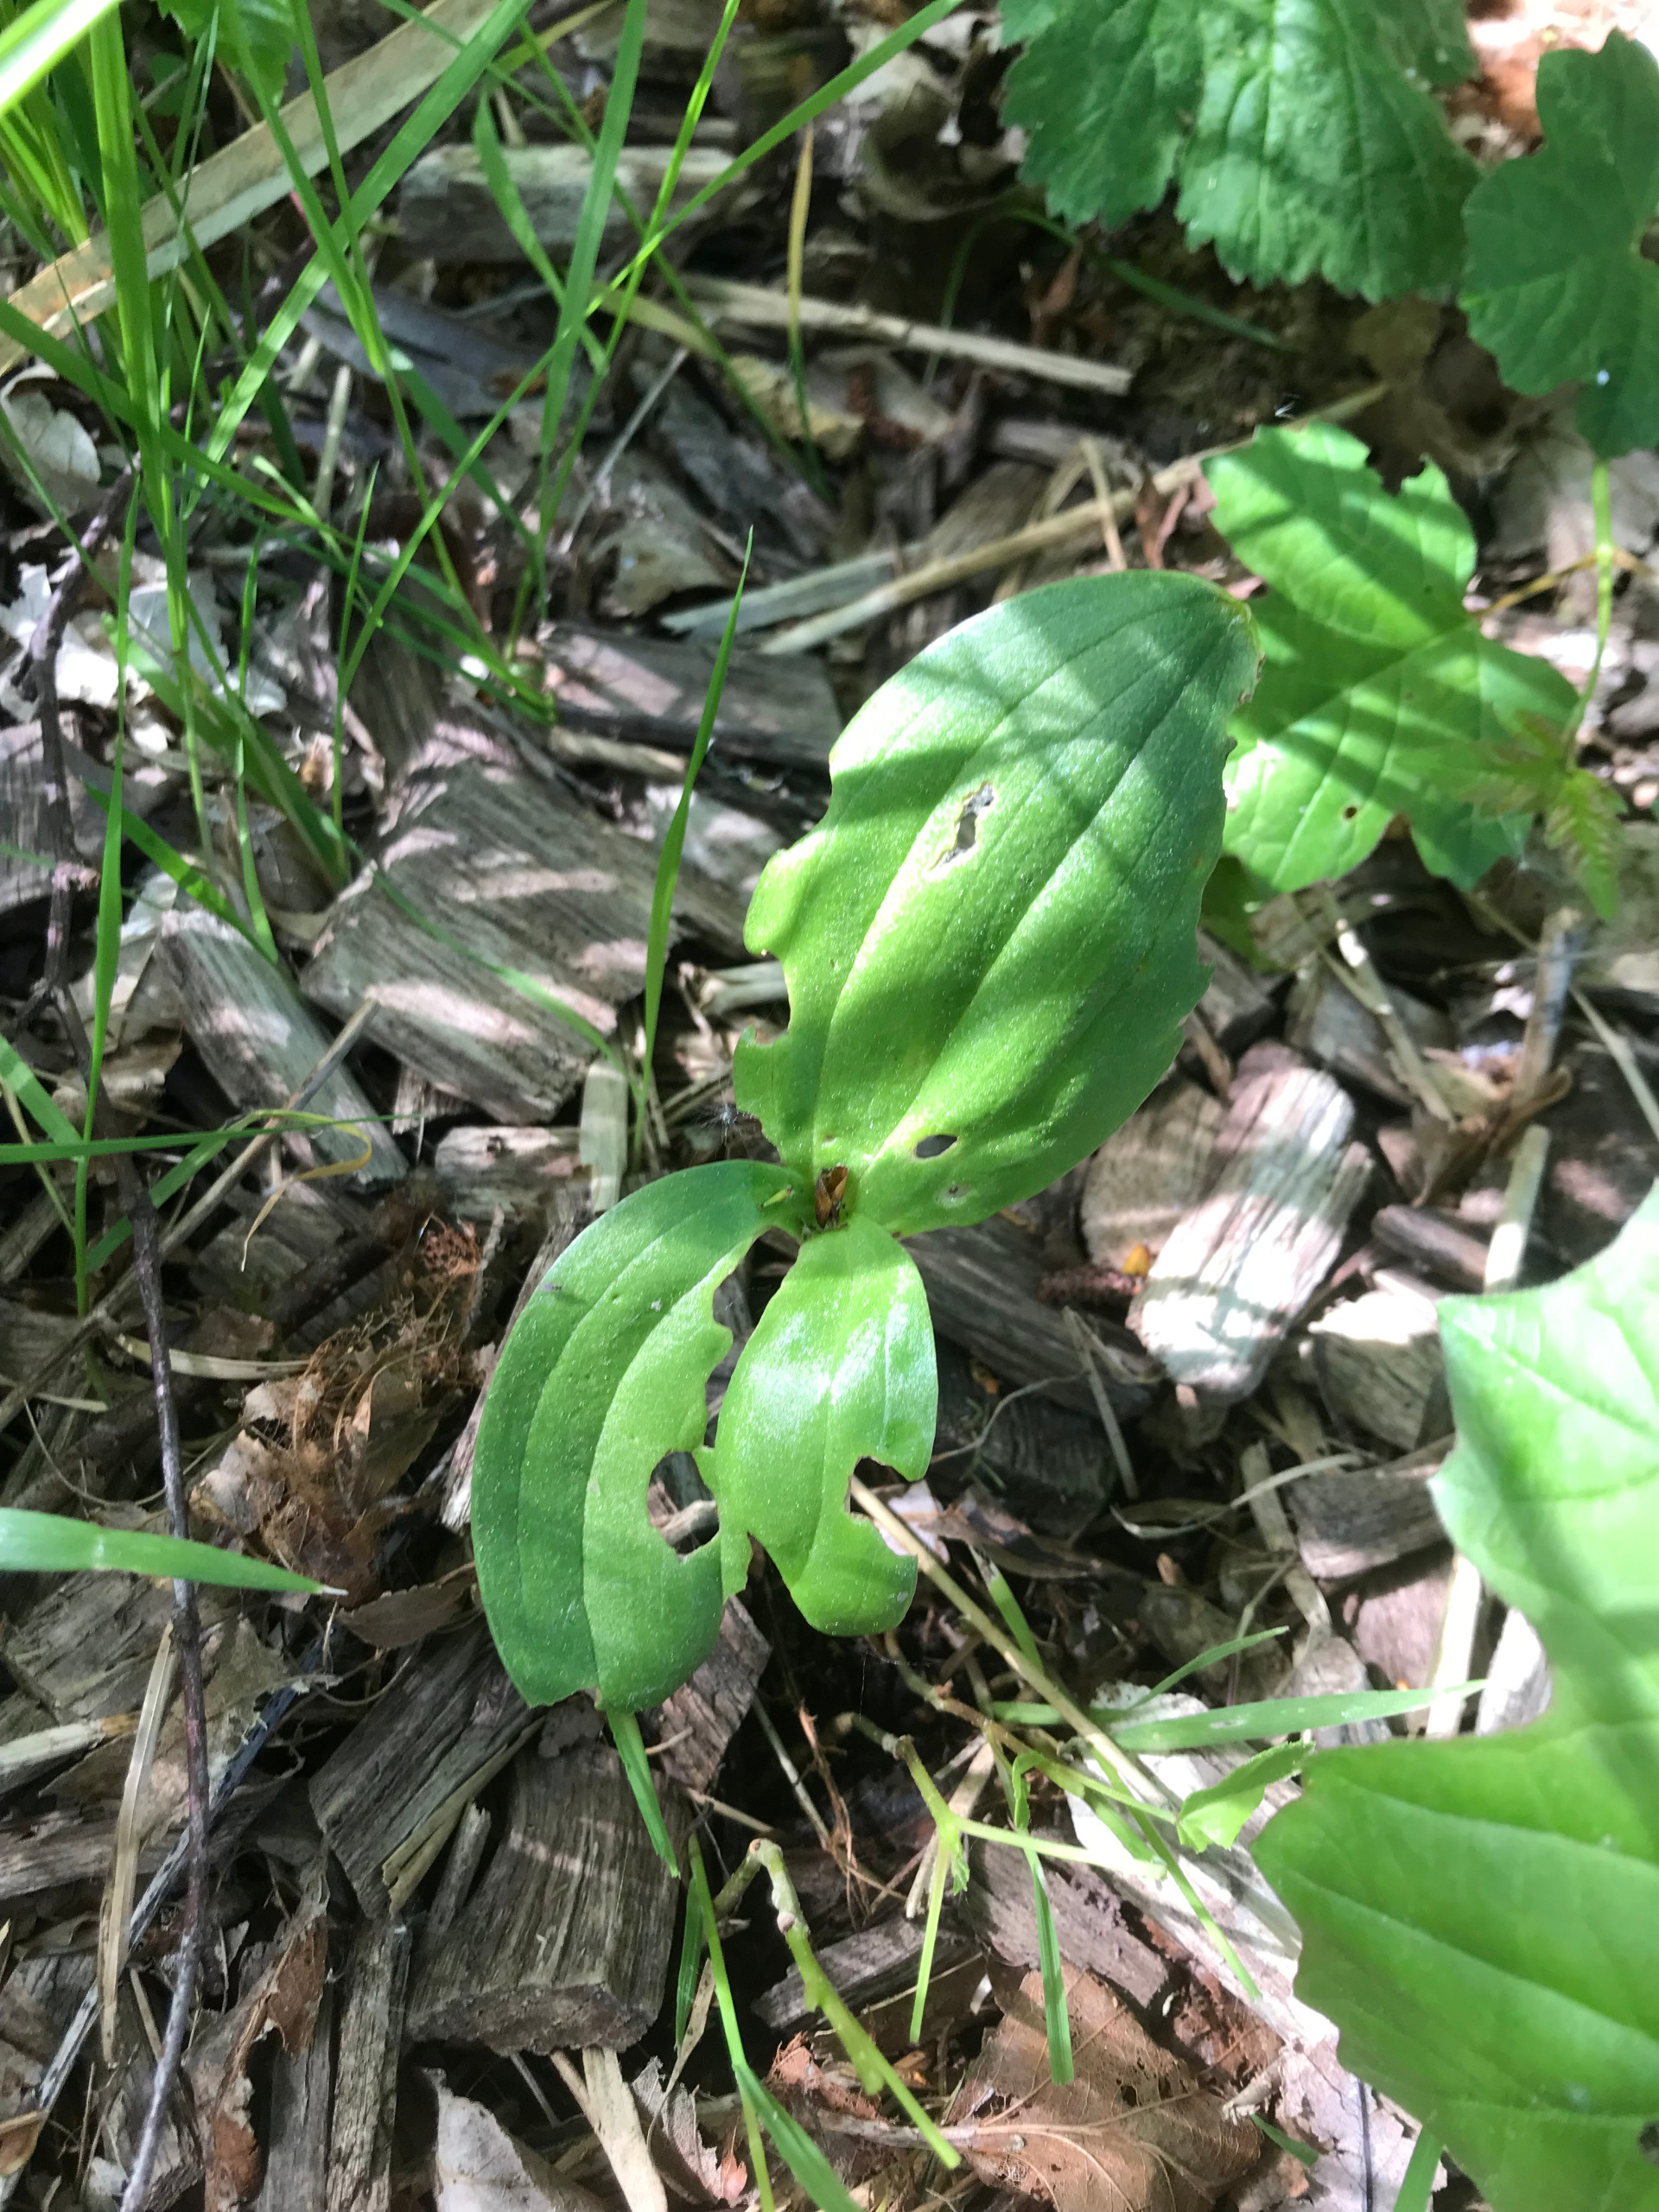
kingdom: Plantae
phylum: Tracheophyta
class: Liliopsida
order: Asparagales
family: Orchidaceae
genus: Neottia
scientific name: Neottia ovata
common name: Ægbladet fliglæbe
